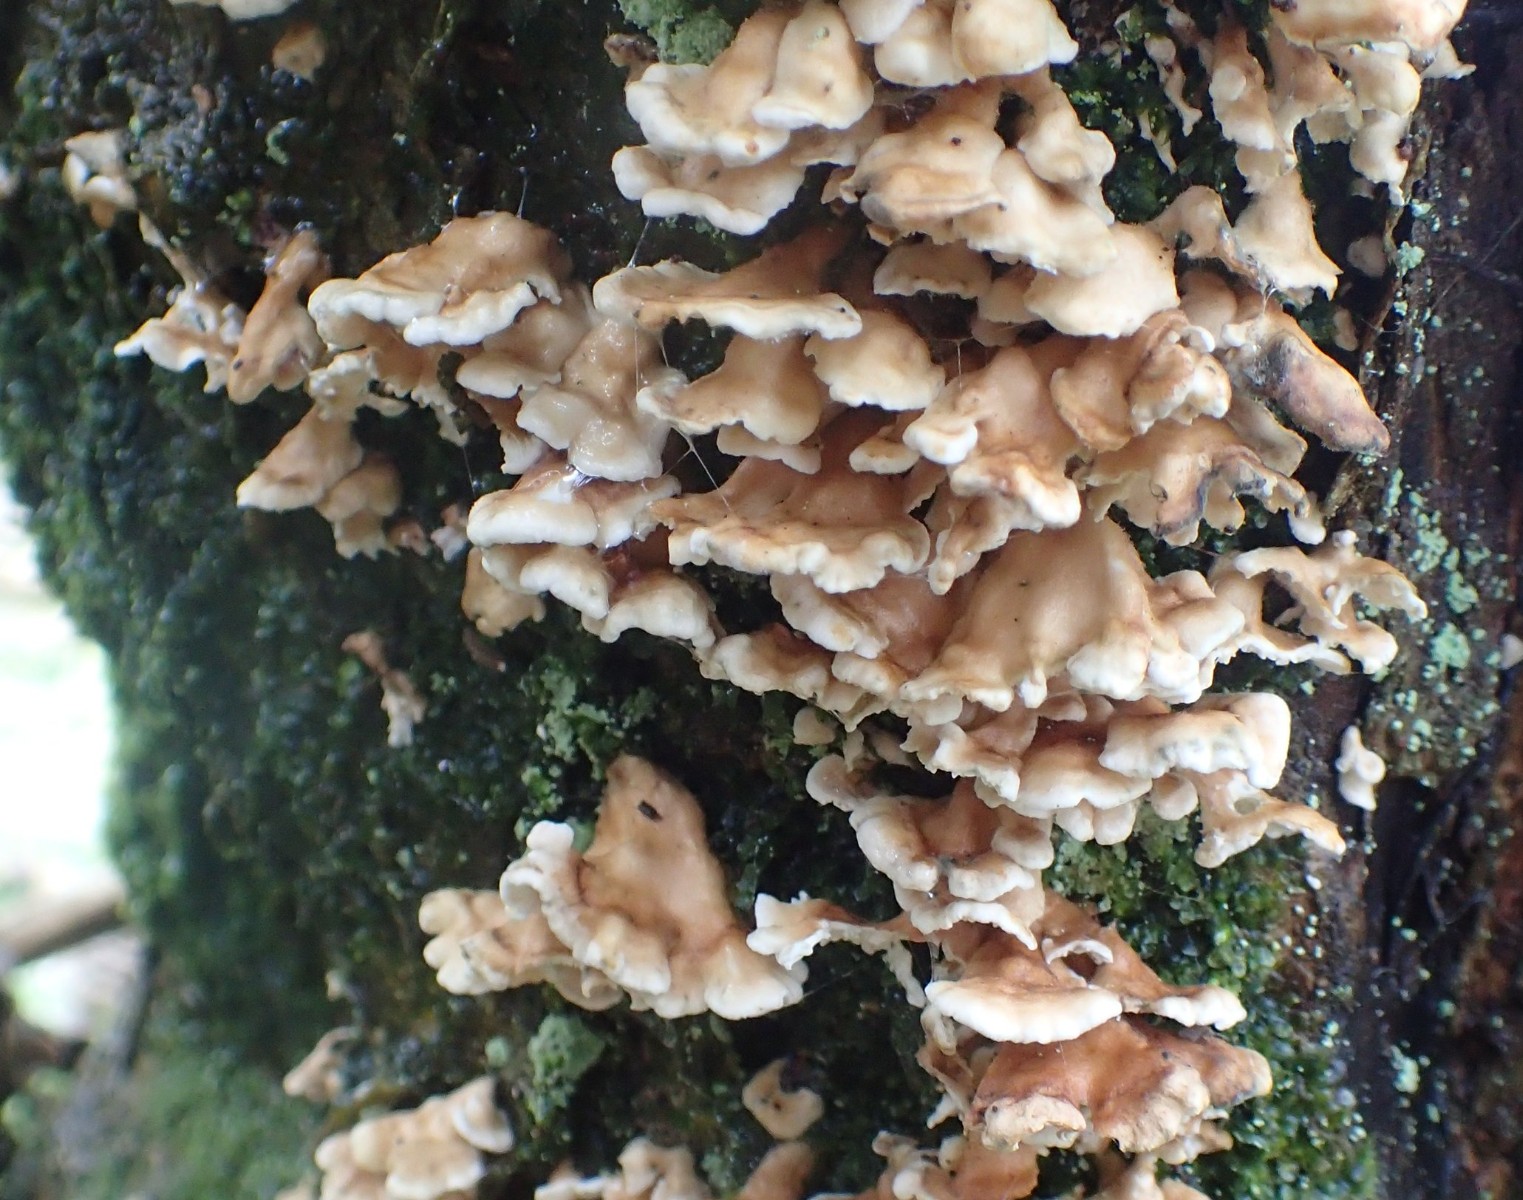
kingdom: Fungi
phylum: Basidiomycota
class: Agaricomycetes
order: Amylocorticiales
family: Amylocorticiaceae
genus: Plicaturopsis
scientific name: Plicaturopsis crispa
